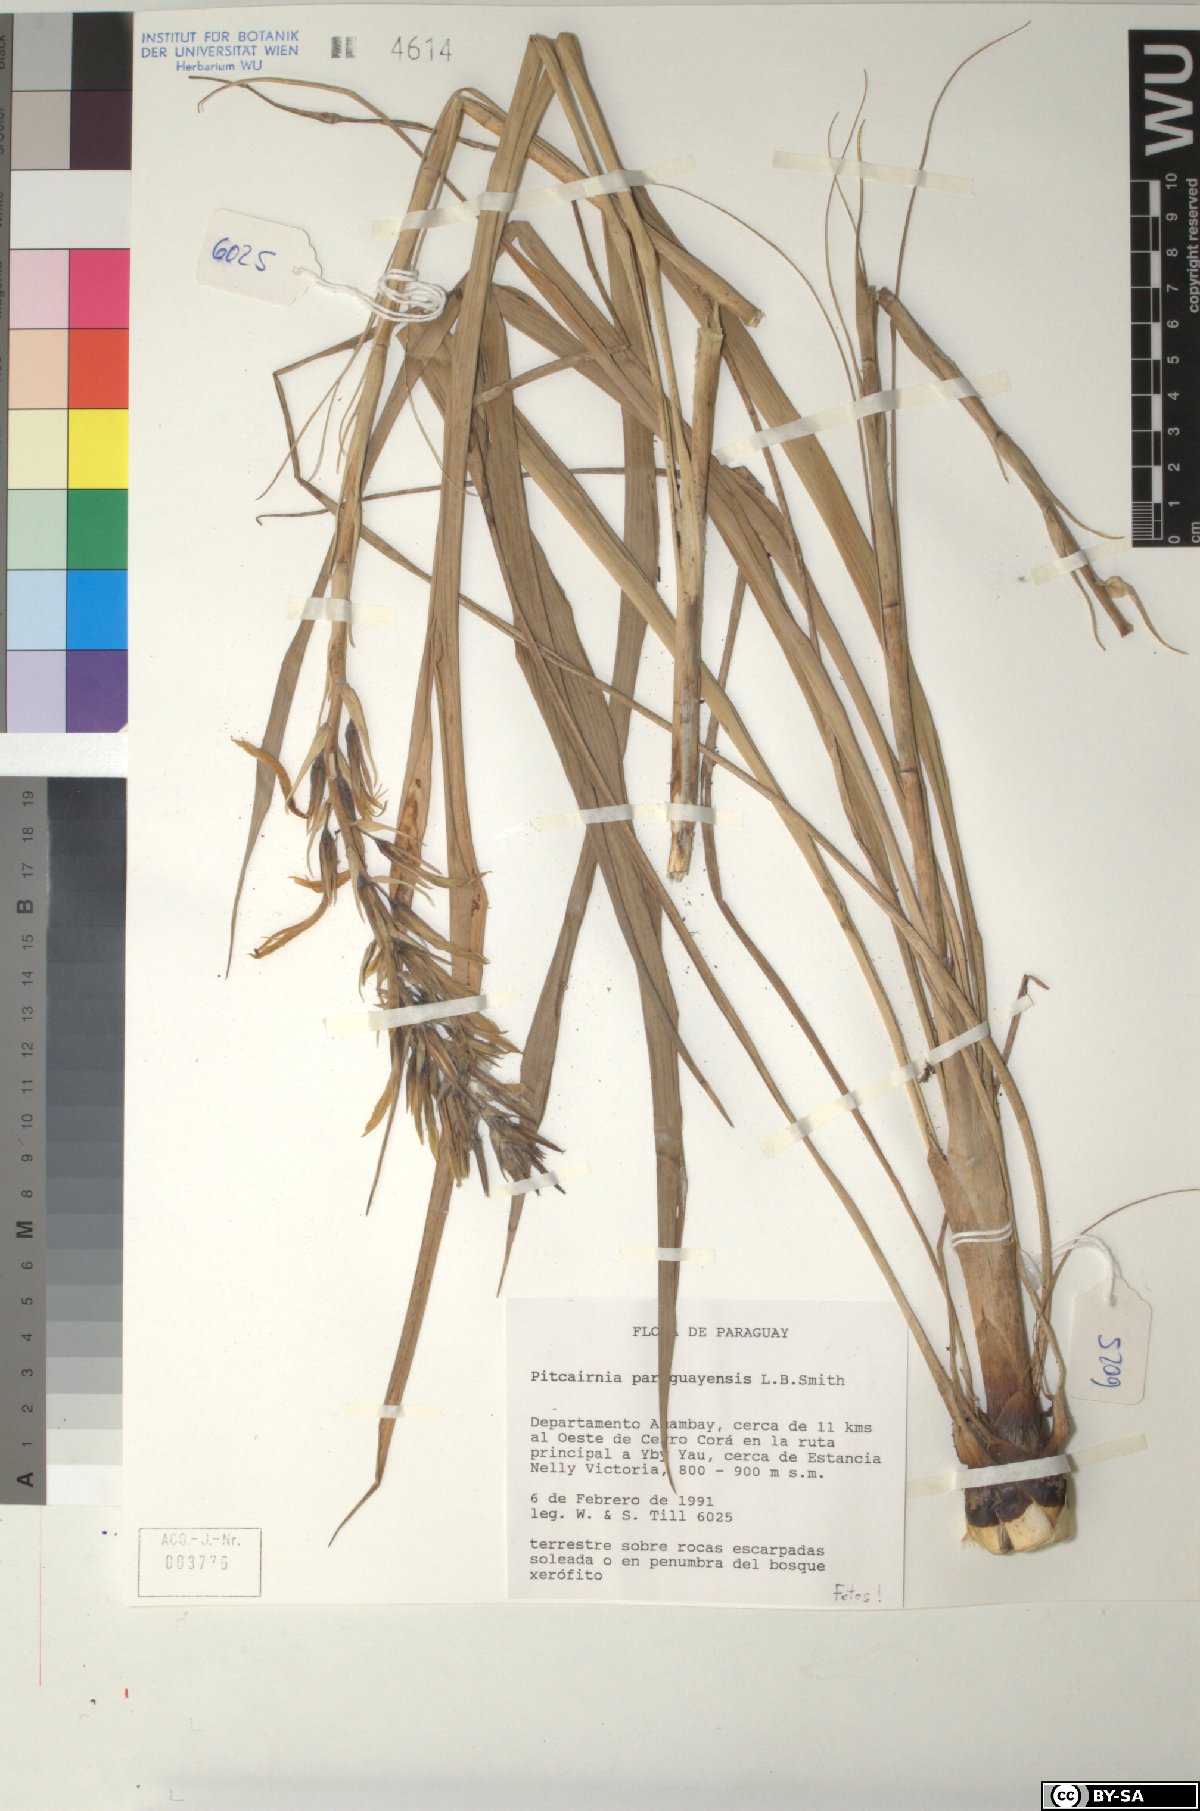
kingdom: Plantae
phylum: Tracheophyta
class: Liliopsida
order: Poales
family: Bromeliaceae
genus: Pitcairnia
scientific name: Pitcairnia paraguayensis
